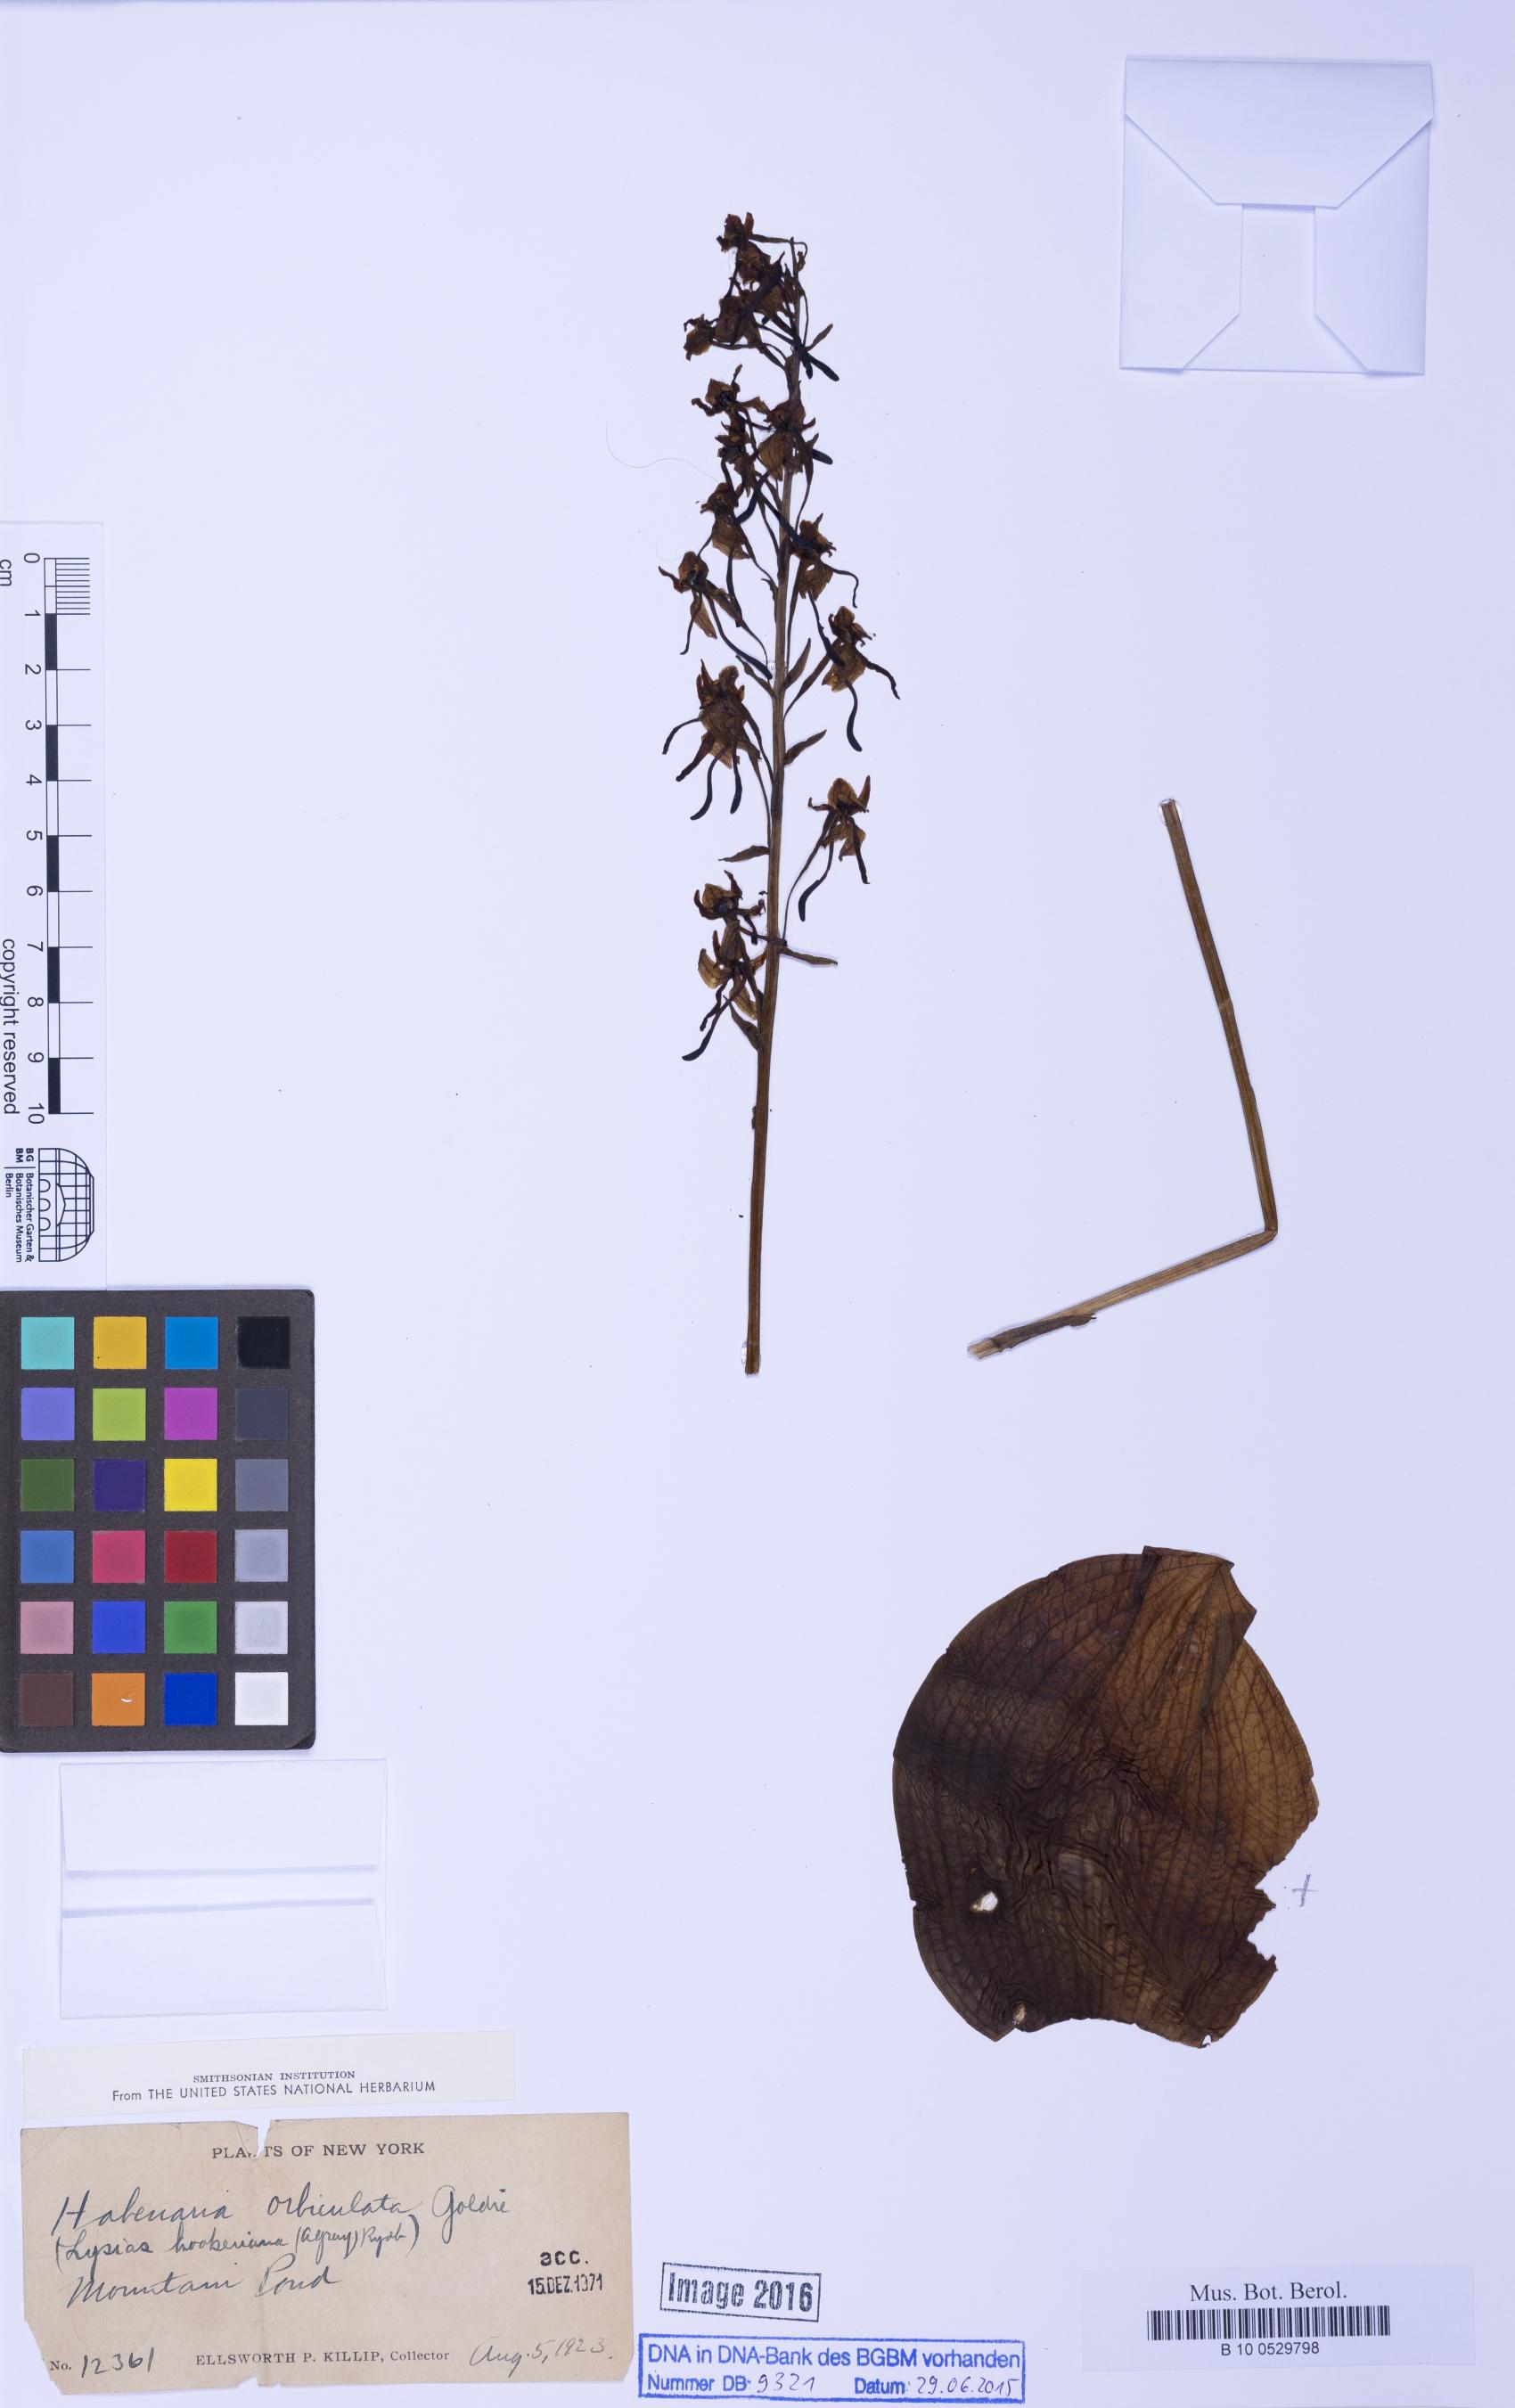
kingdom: Plantae
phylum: Tracheophyta
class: Liliopsida
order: Asparagales
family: Orchidaceae
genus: Platanthera
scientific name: Platanthera orbiculata
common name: Large round-leaved orchid
